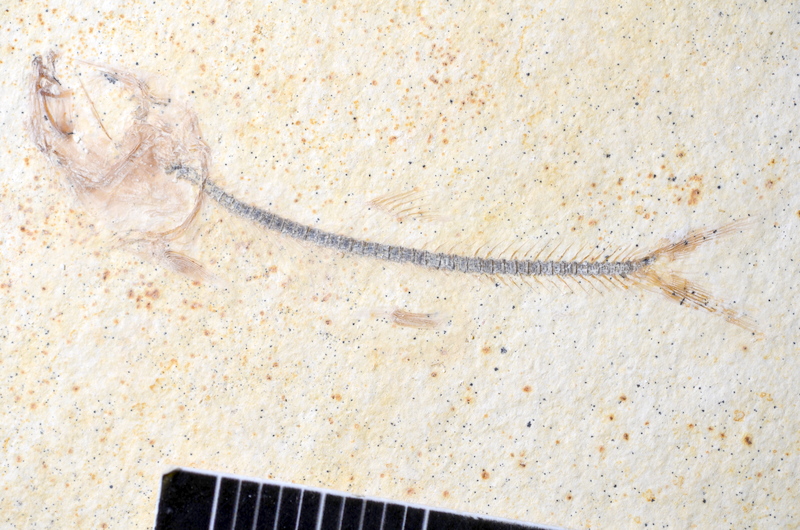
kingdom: Animalia
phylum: Chordata
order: Salmoniformes
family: Orthogonikleithridae
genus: Orthogonikleithrus
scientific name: Orthogonikleithrus hoelli
